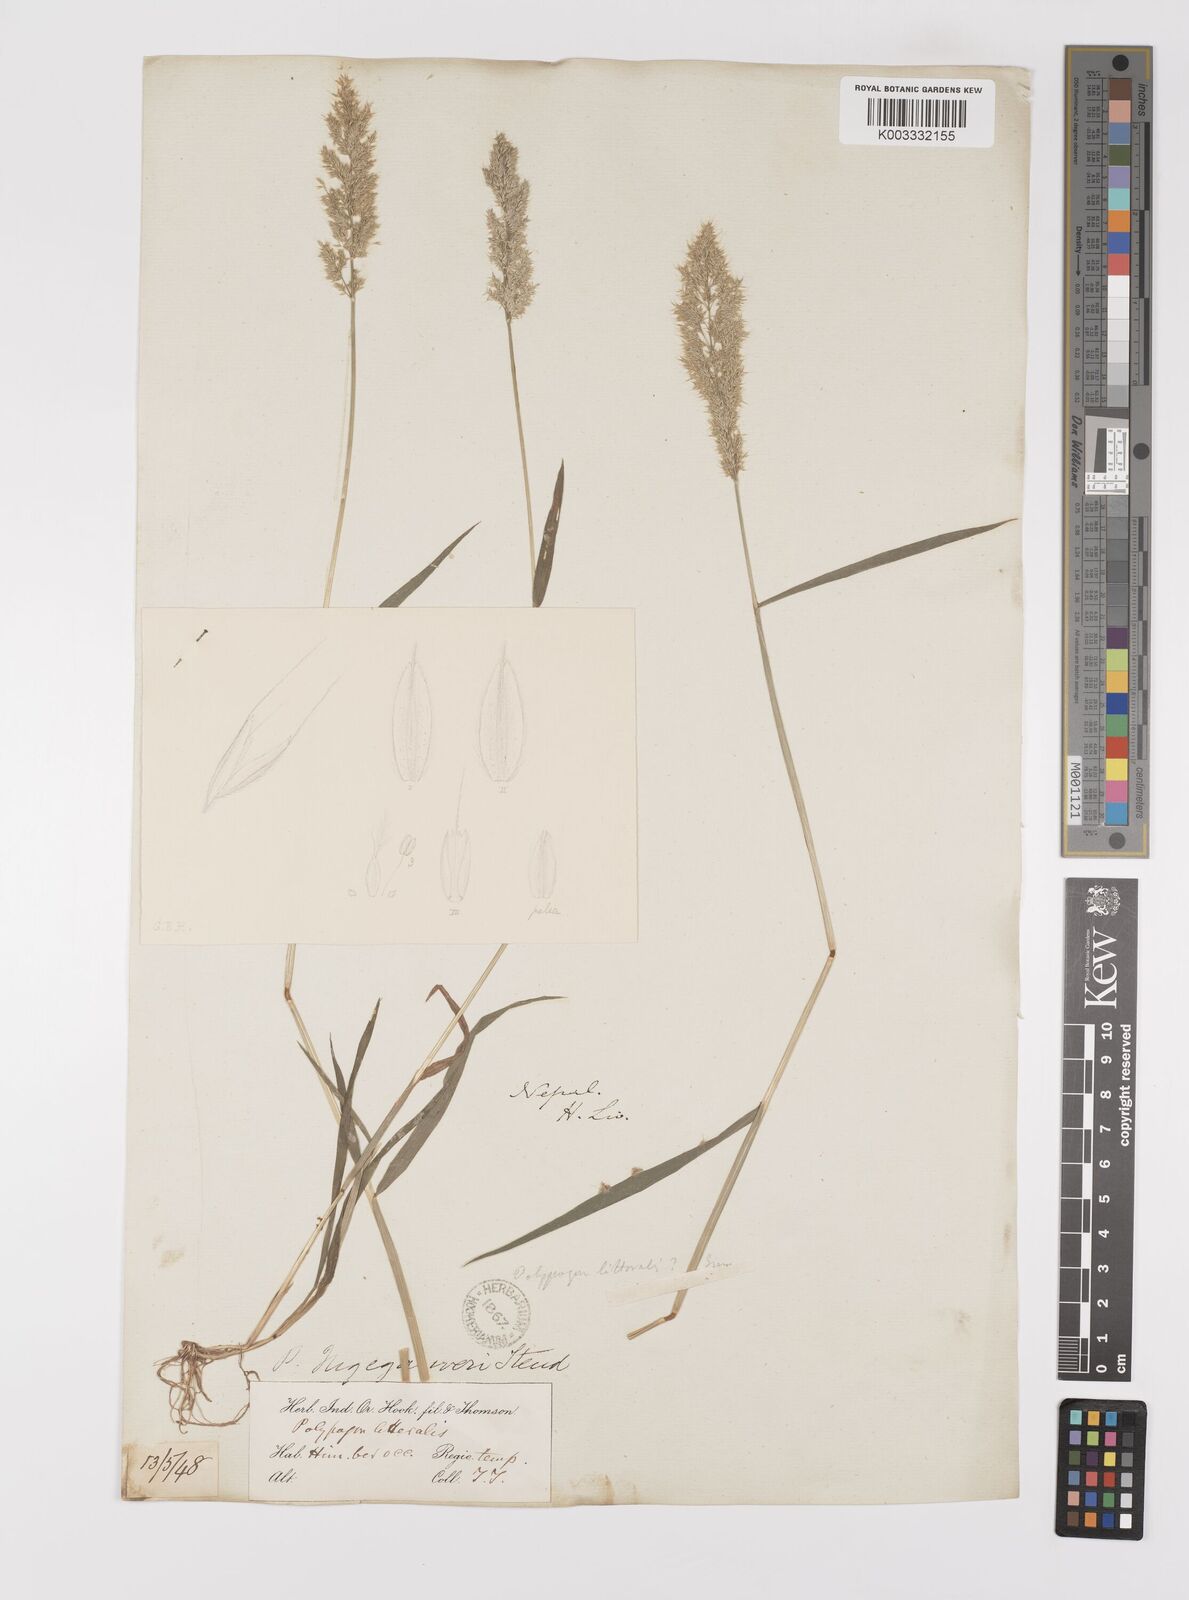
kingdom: Plantae
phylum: Tracheophyta
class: Liliopsida
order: Poales
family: Poaceae
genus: Polypogon
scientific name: Polypogon fugax
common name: Asia minor bluegrass
